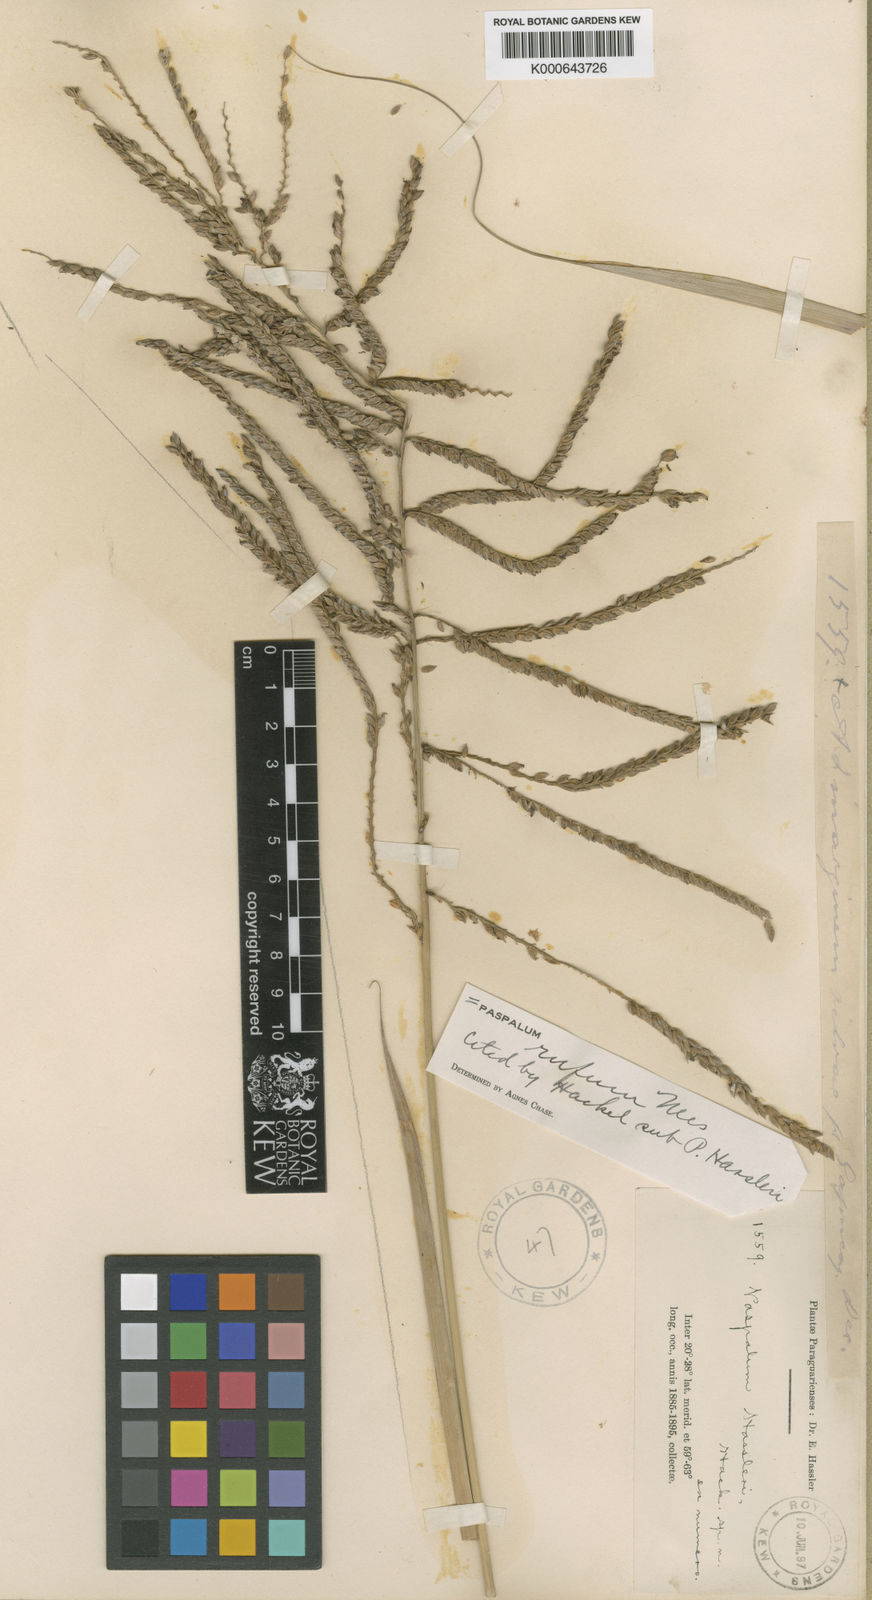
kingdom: Plantae
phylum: Tracheophyta
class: Liliopsida
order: Poales
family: Poaceae
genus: Paspalum
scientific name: Paspalum rufum
